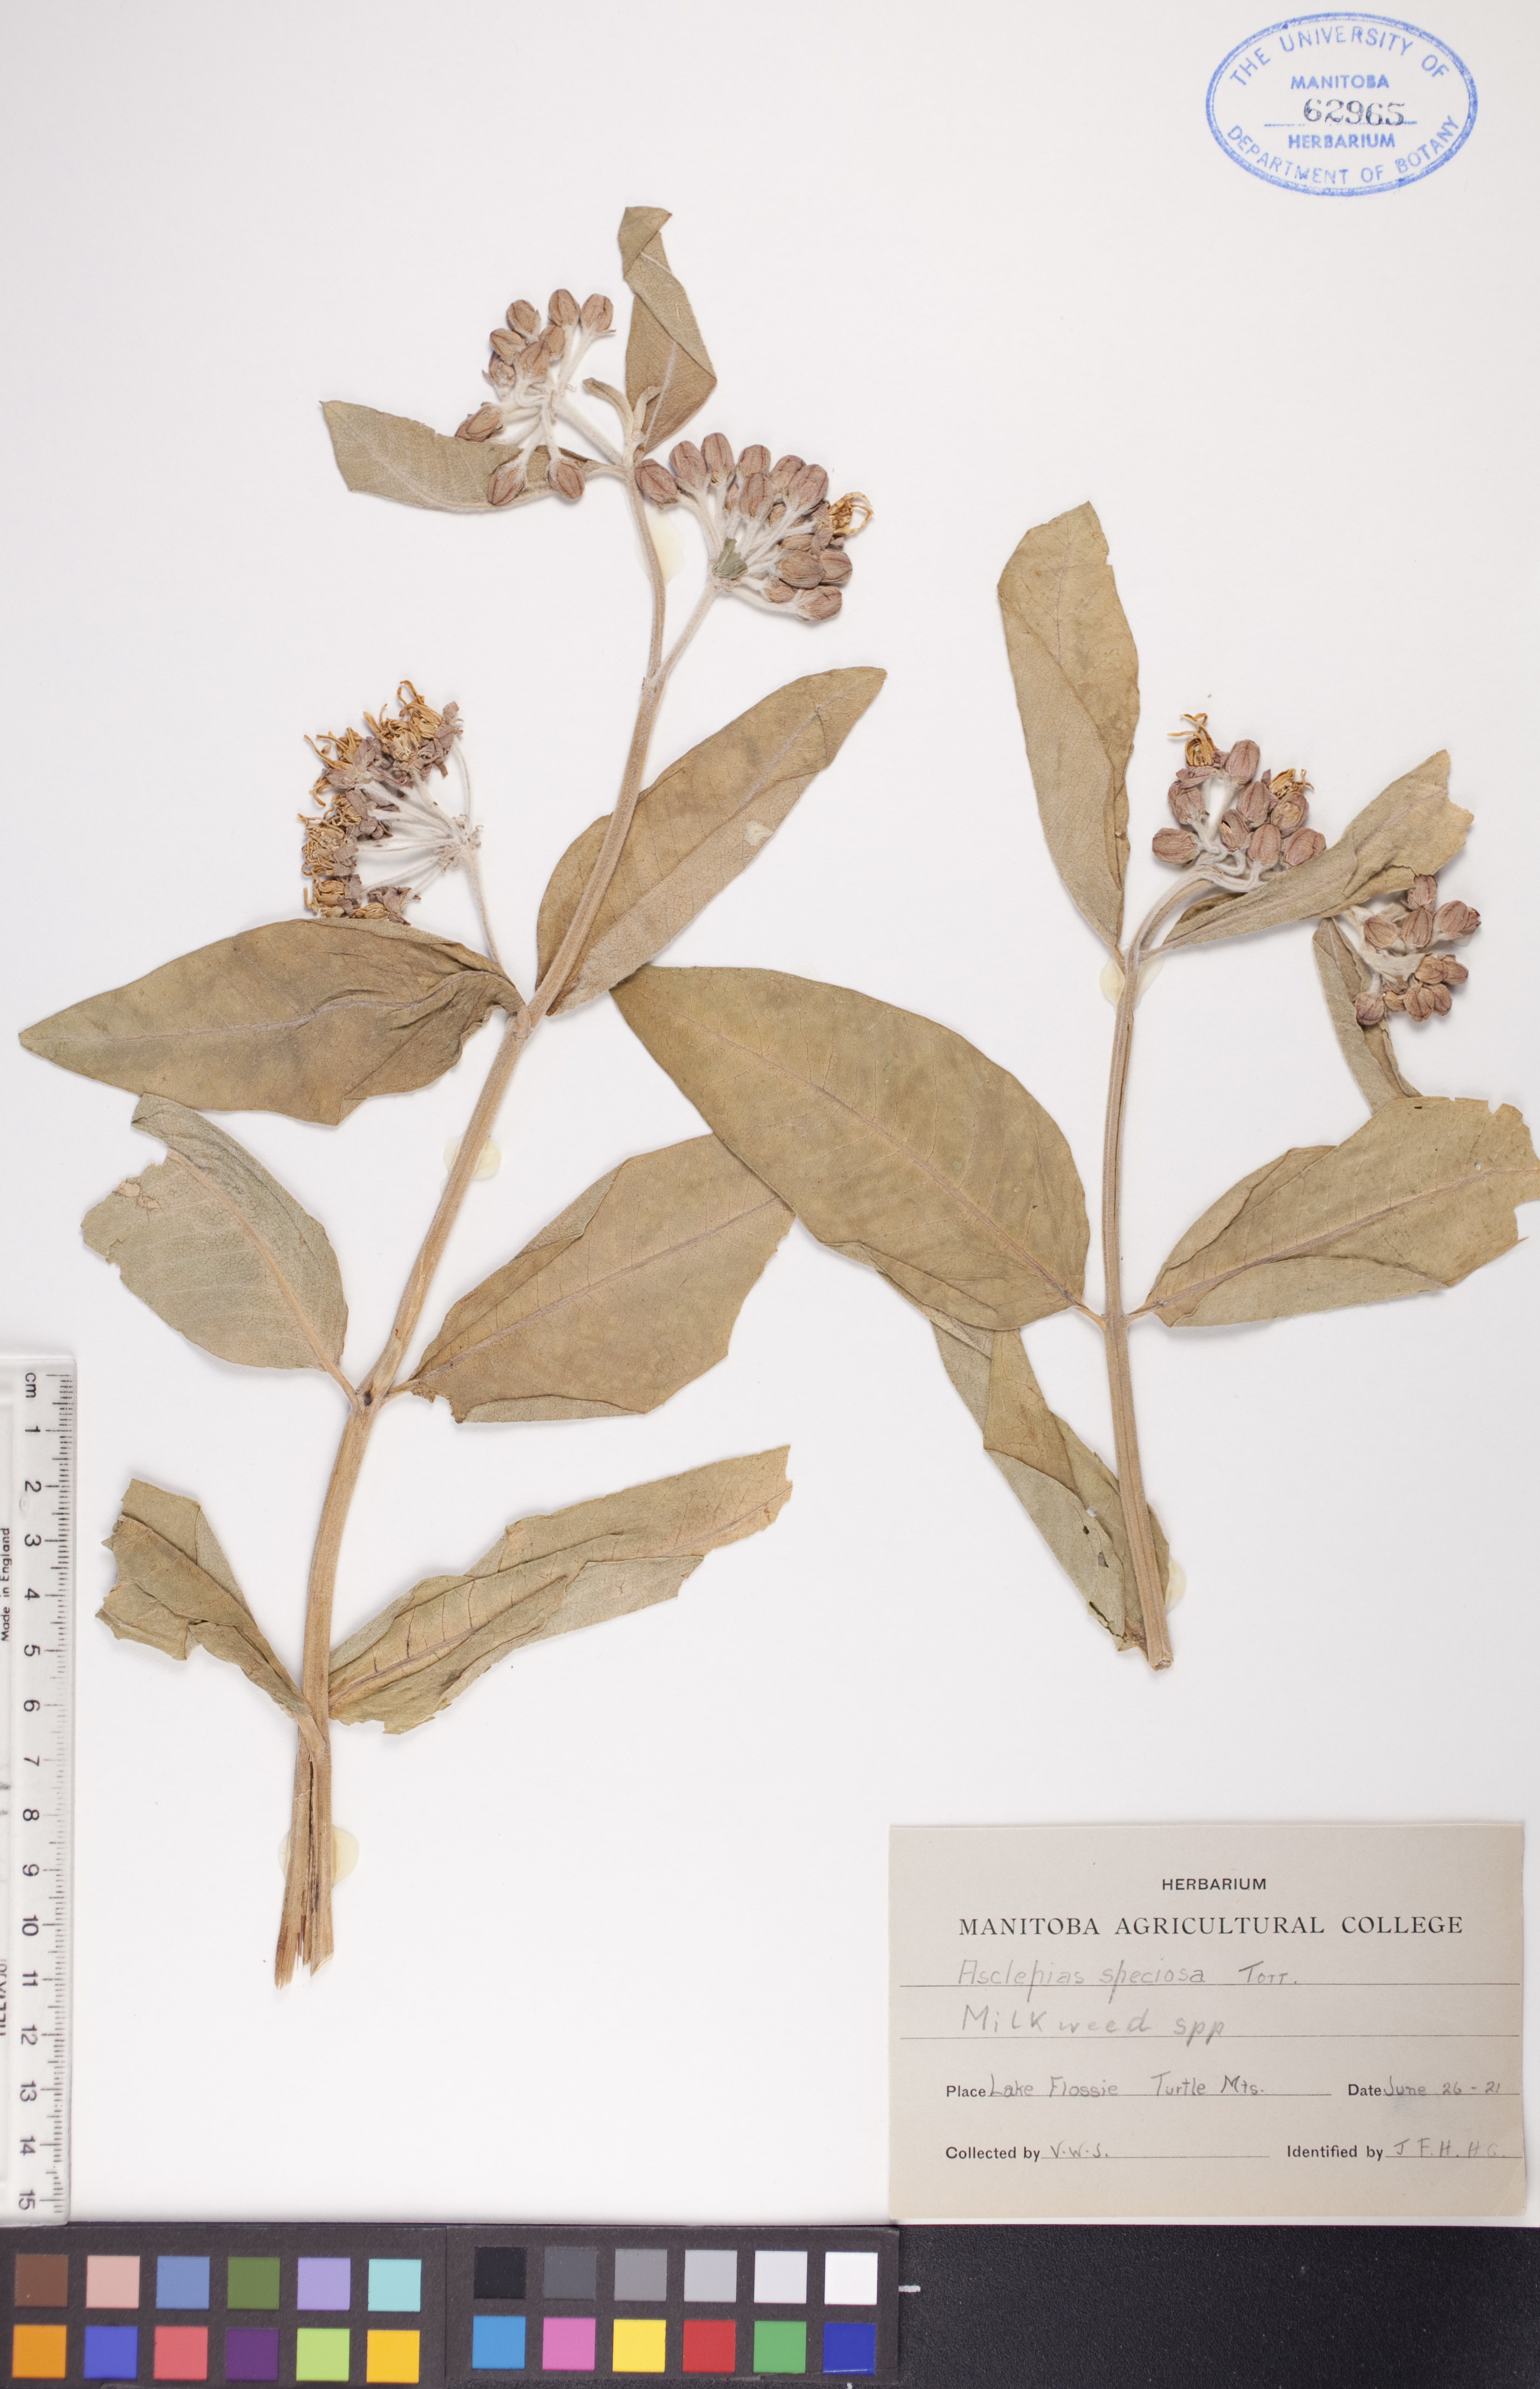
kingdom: Plantae
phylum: Tracheophyta
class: Magnoliopsida
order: Gentianales
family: Apocynaceae
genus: Asclepias
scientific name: Asclepias speciosa
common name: Showy milkweed
